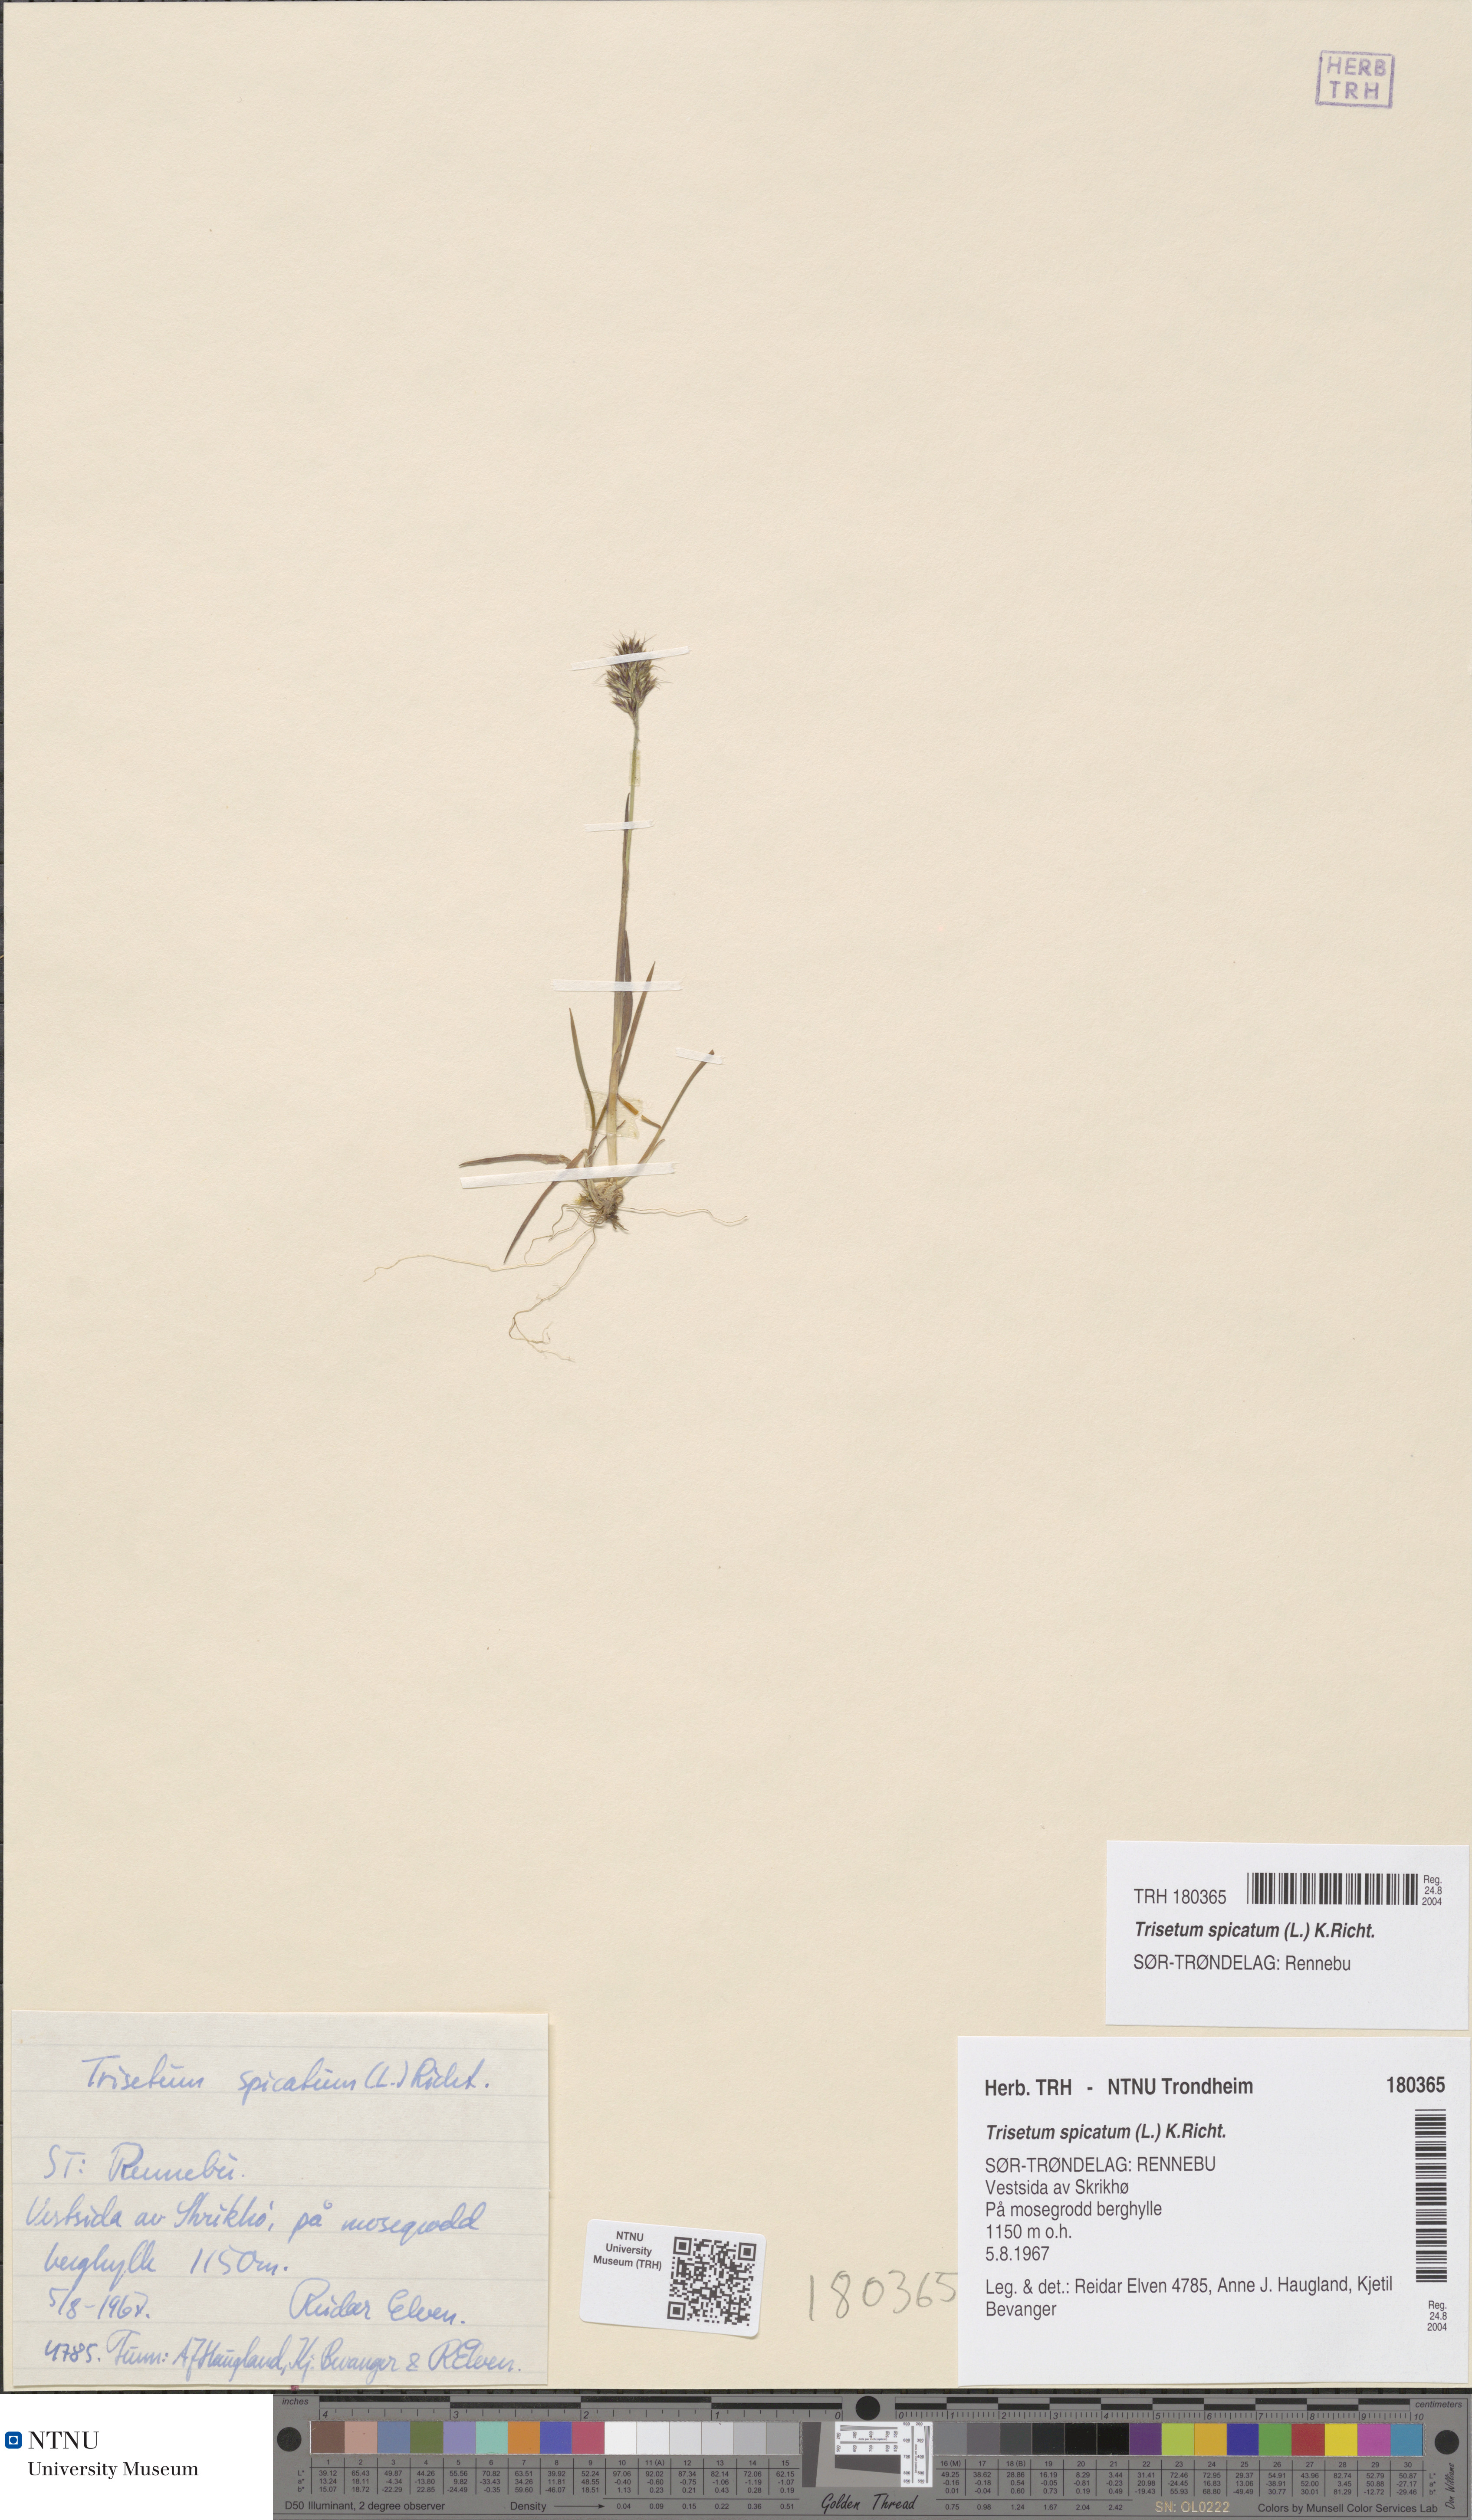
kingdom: Plantae
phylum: Tracheophyta
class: Liliopsida
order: Poales
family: Poaceae
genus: Koeleria
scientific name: Koeleria spicata
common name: Mountain trisetum
